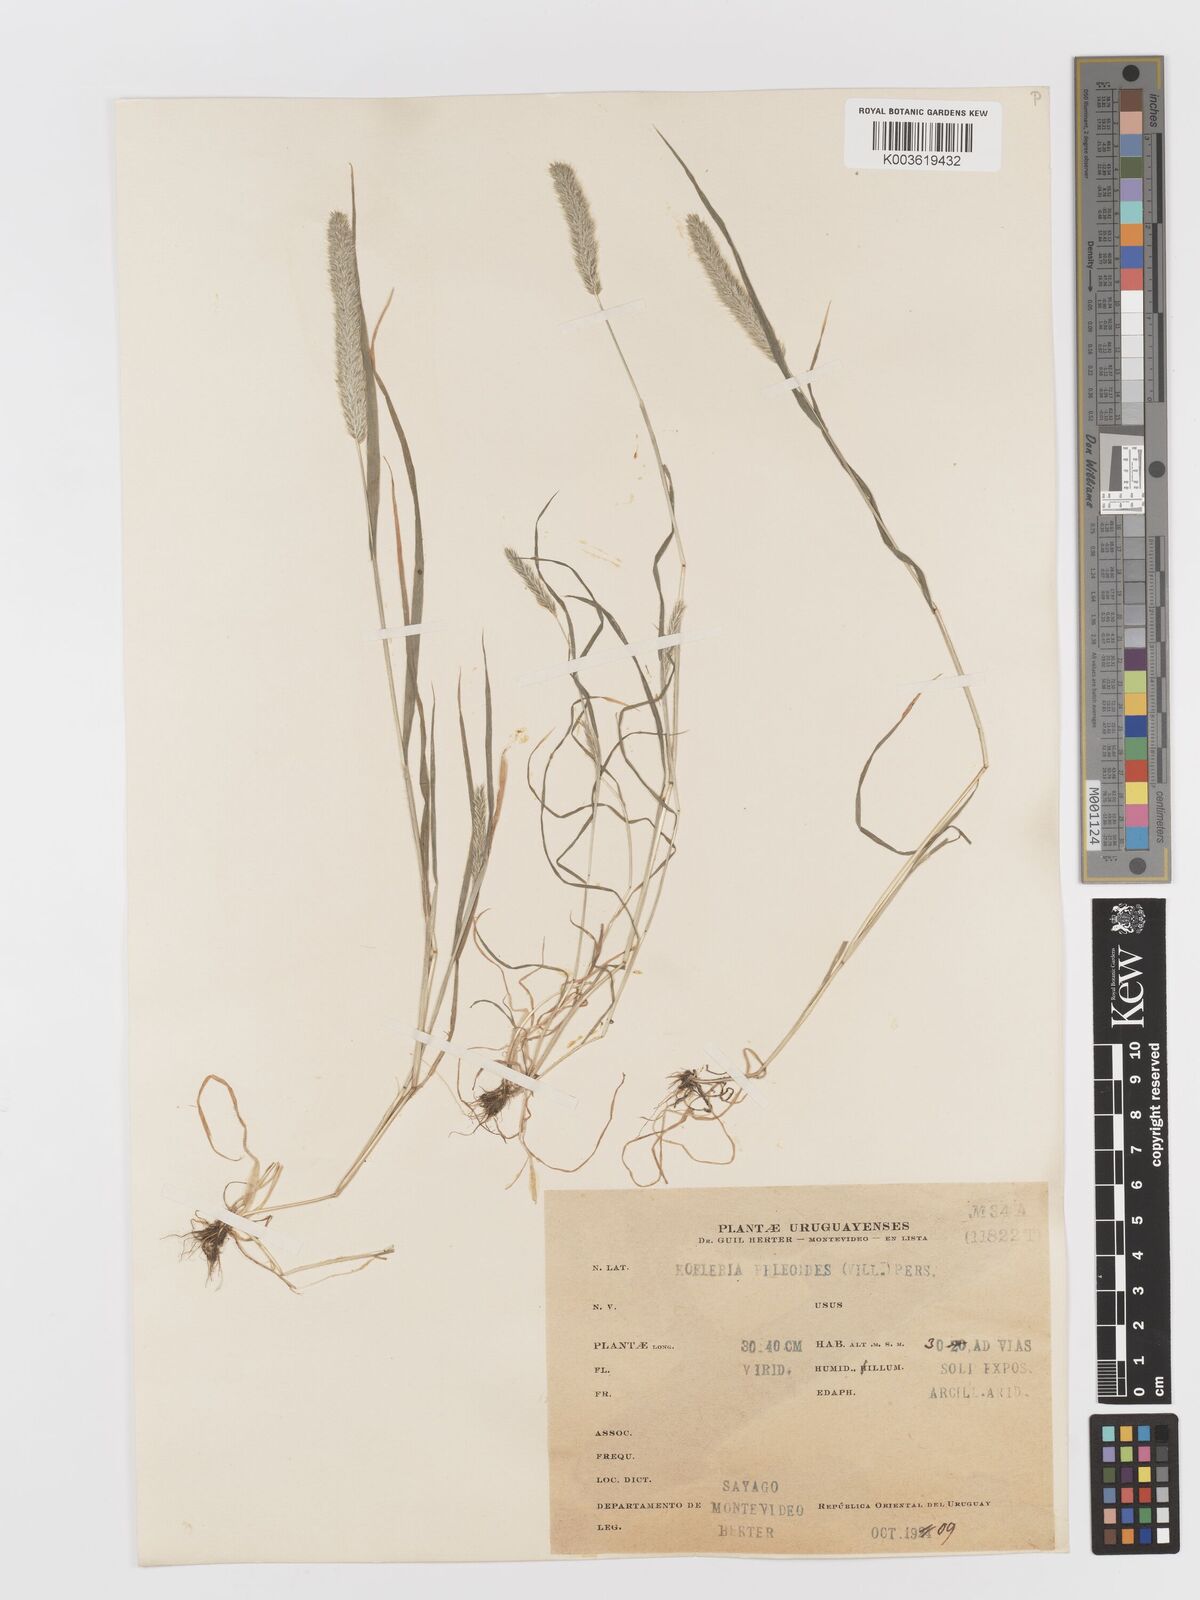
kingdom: Plantae
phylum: Tracheophyta
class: Liliopsida
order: Poales
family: Poaceae
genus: Rostraria
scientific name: Rostraria cristata
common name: Mediterranean hair-grass
